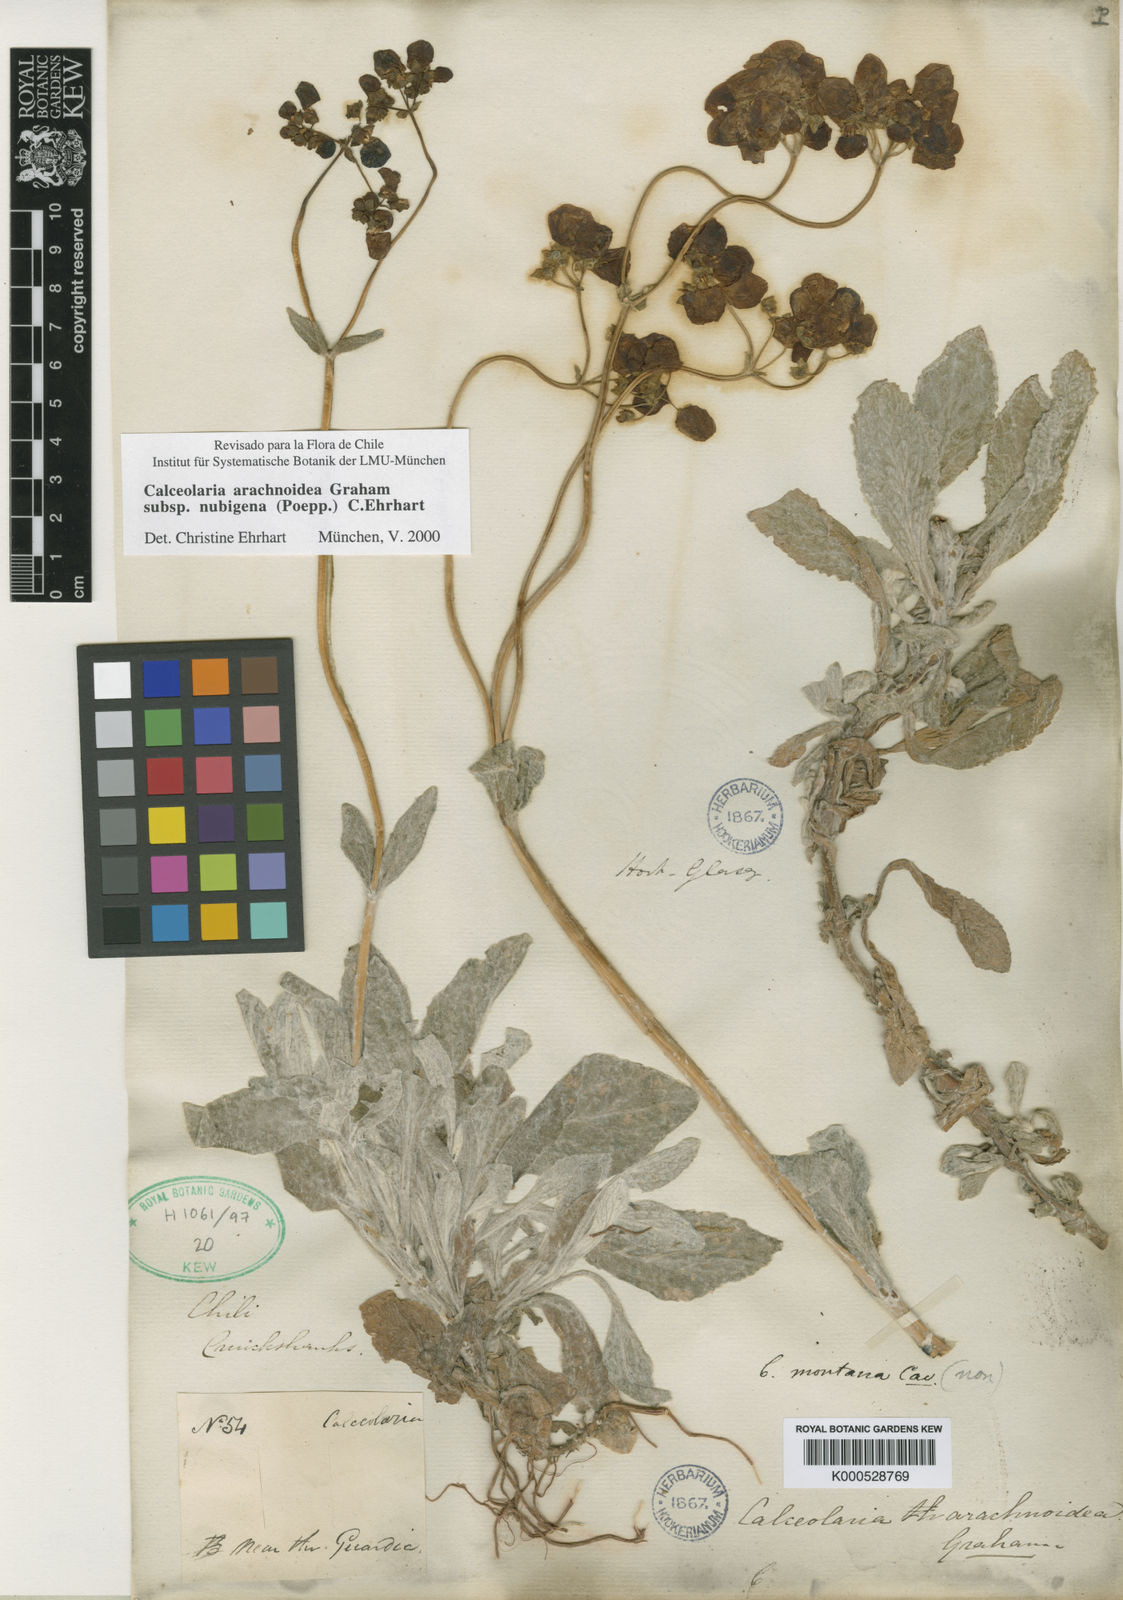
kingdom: Plantae
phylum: Tracheophyta
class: Magnoliopsida
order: Lamiales
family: Calceolariaceae
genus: Calceolaria
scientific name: Calceolaria arachnoidea
